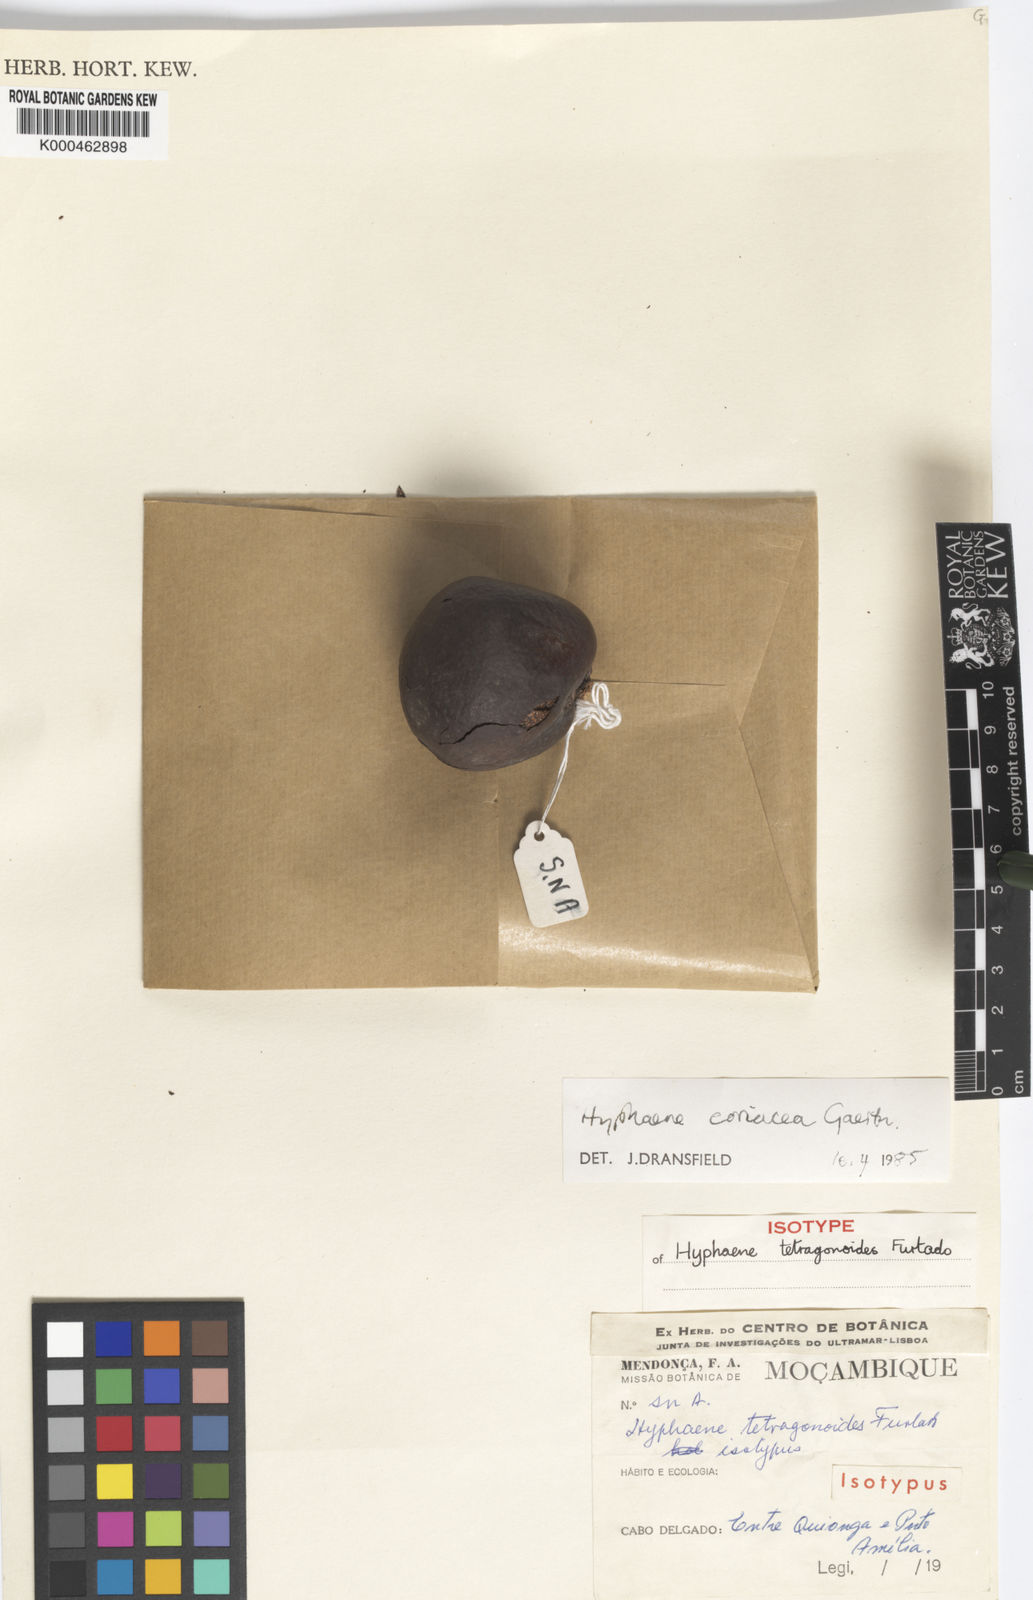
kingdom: Plantae
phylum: Tracheophyta
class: Liliopsida
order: Arecales
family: Arecaceae
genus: Hyphaene
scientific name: Hyphaene coriacea
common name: Ilala palm
